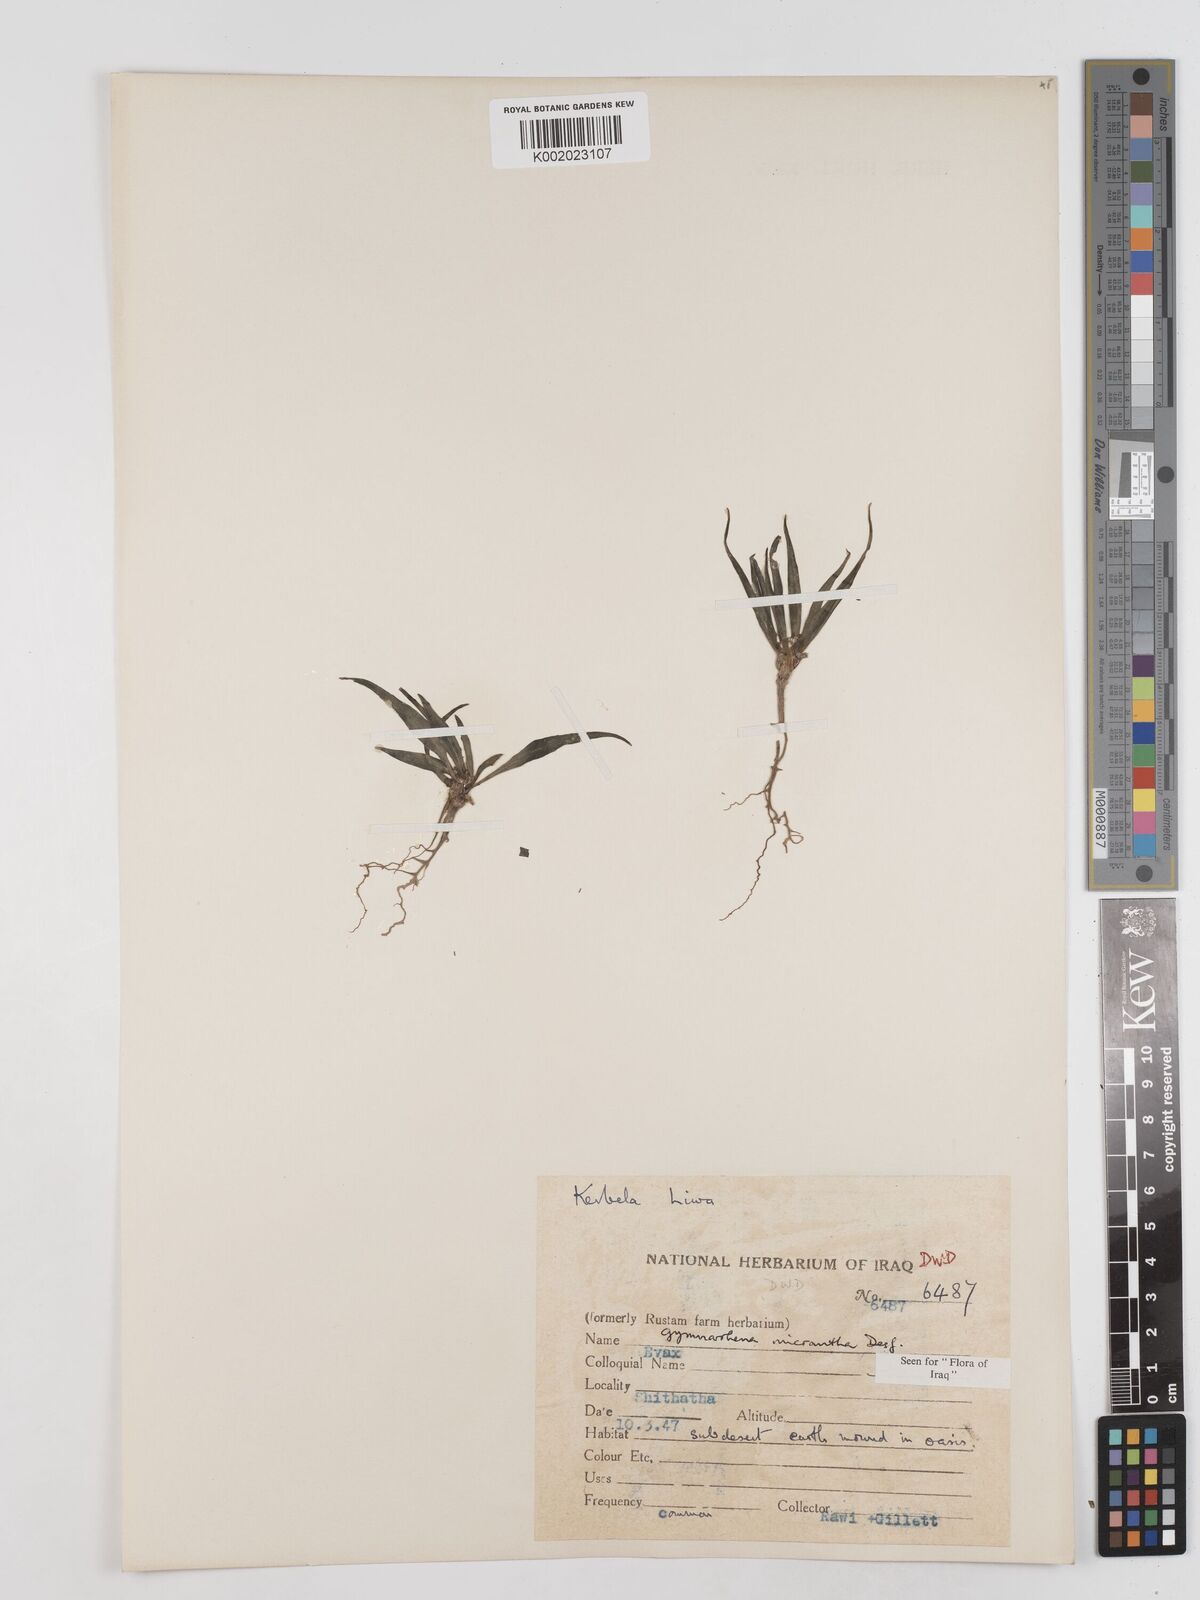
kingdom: Plantae
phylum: Tracheophyta
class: Magnoliopsida
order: Asterales
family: Asteraceae
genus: Gymnarrhena
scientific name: Gymnarrhena micrantha
